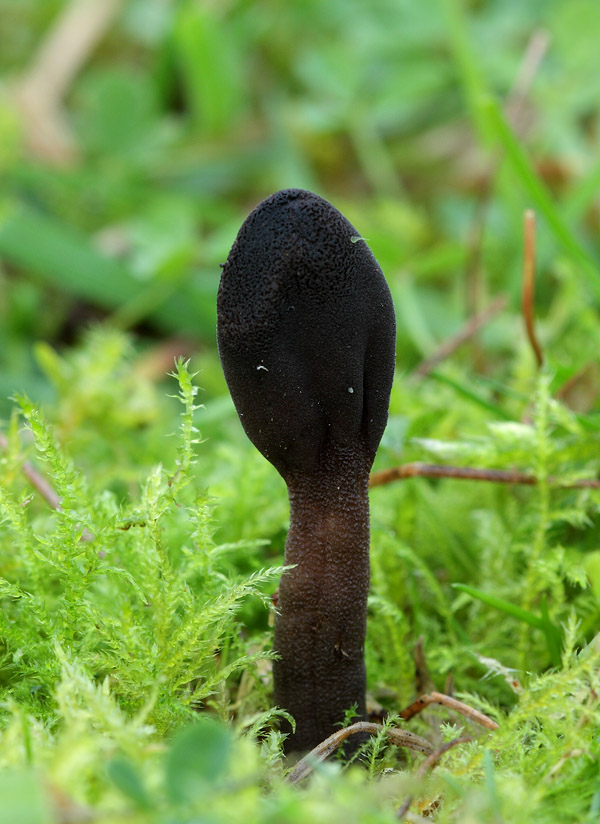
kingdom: Fungi
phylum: Ascomycota
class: Geoglossomycetes
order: Geoglossales
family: Geoglossaceae
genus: Geoglossum
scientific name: Geoglossum fallax
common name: småskællet jordtunge
